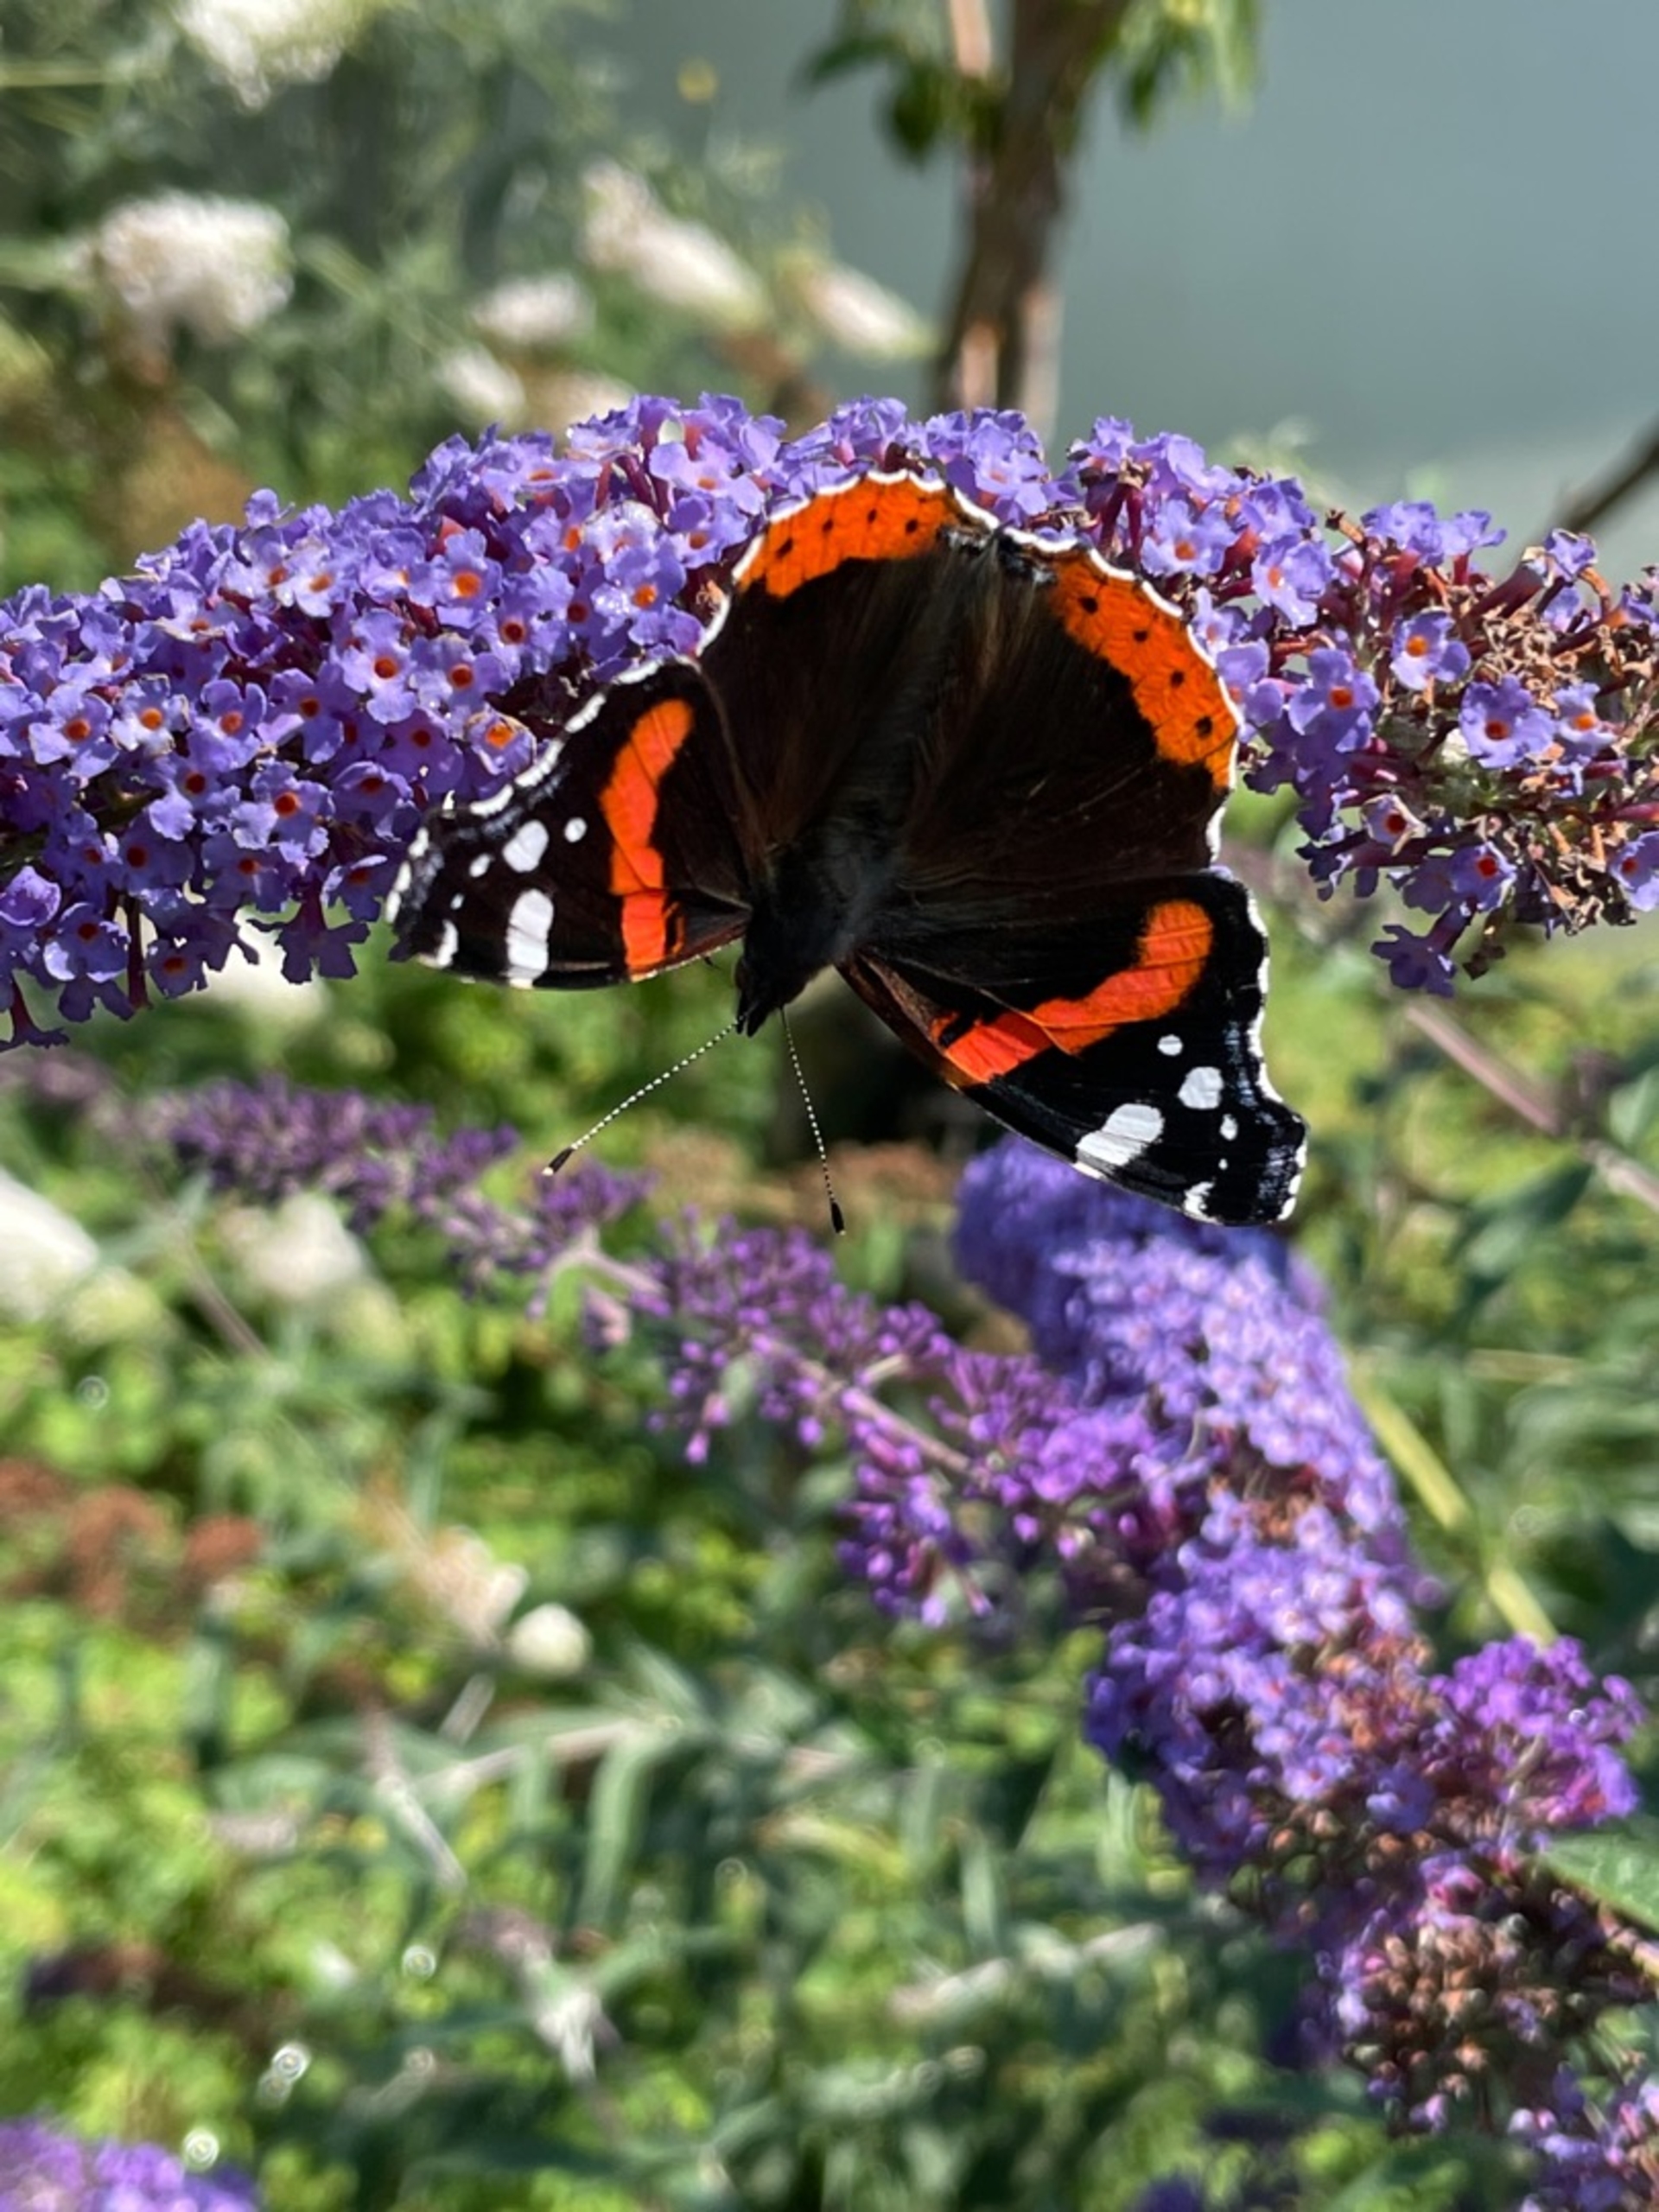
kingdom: Animalia
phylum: Arthropoda
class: Insecta
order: Lepidoptera
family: Nymphalidae
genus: Vanessa
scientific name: Vanessa atalanta
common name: Admiral
